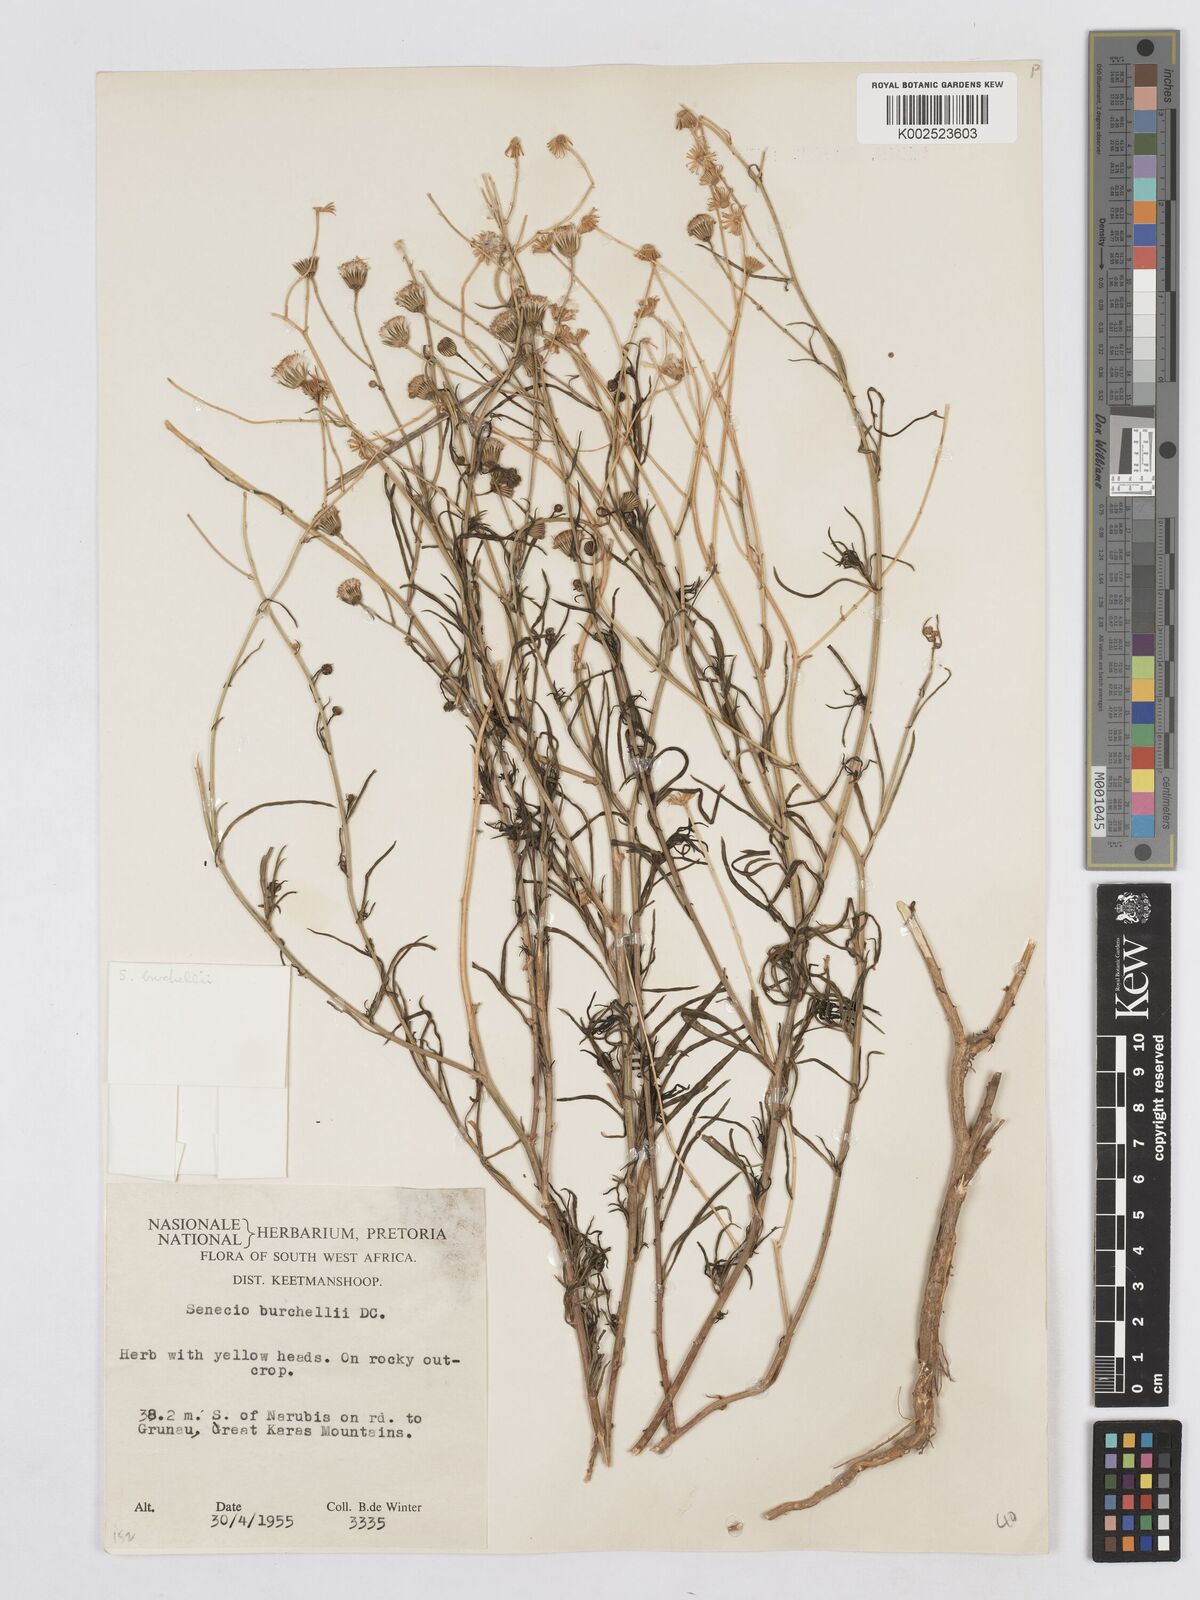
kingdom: Plantae
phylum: Tracheophyta
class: Magnoliopsida
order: Asterales
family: Asteraceae
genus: Senecio
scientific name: Senecio inaequidens
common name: Narrow-leaved ragwort
